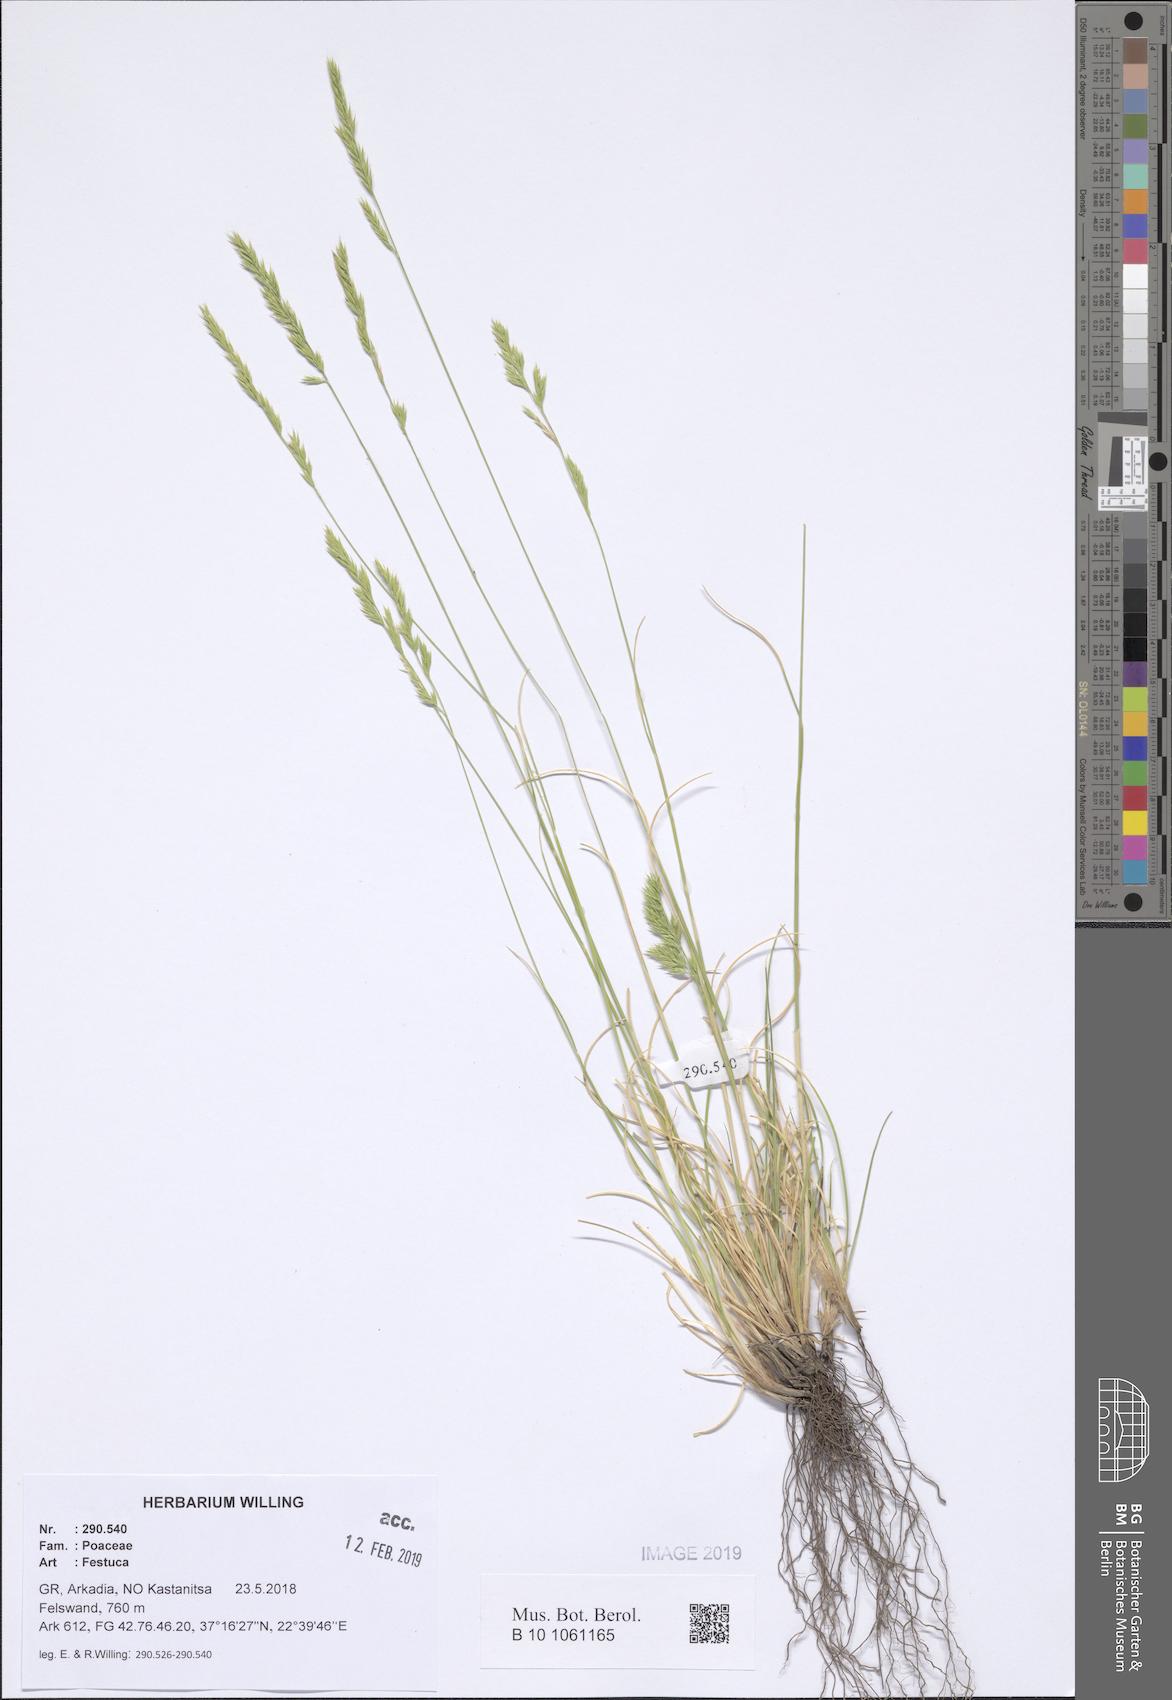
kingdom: Plantae
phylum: Tracheophyta
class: Liliopsida
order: Poales
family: Poaceae
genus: Festuca
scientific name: Festuca
